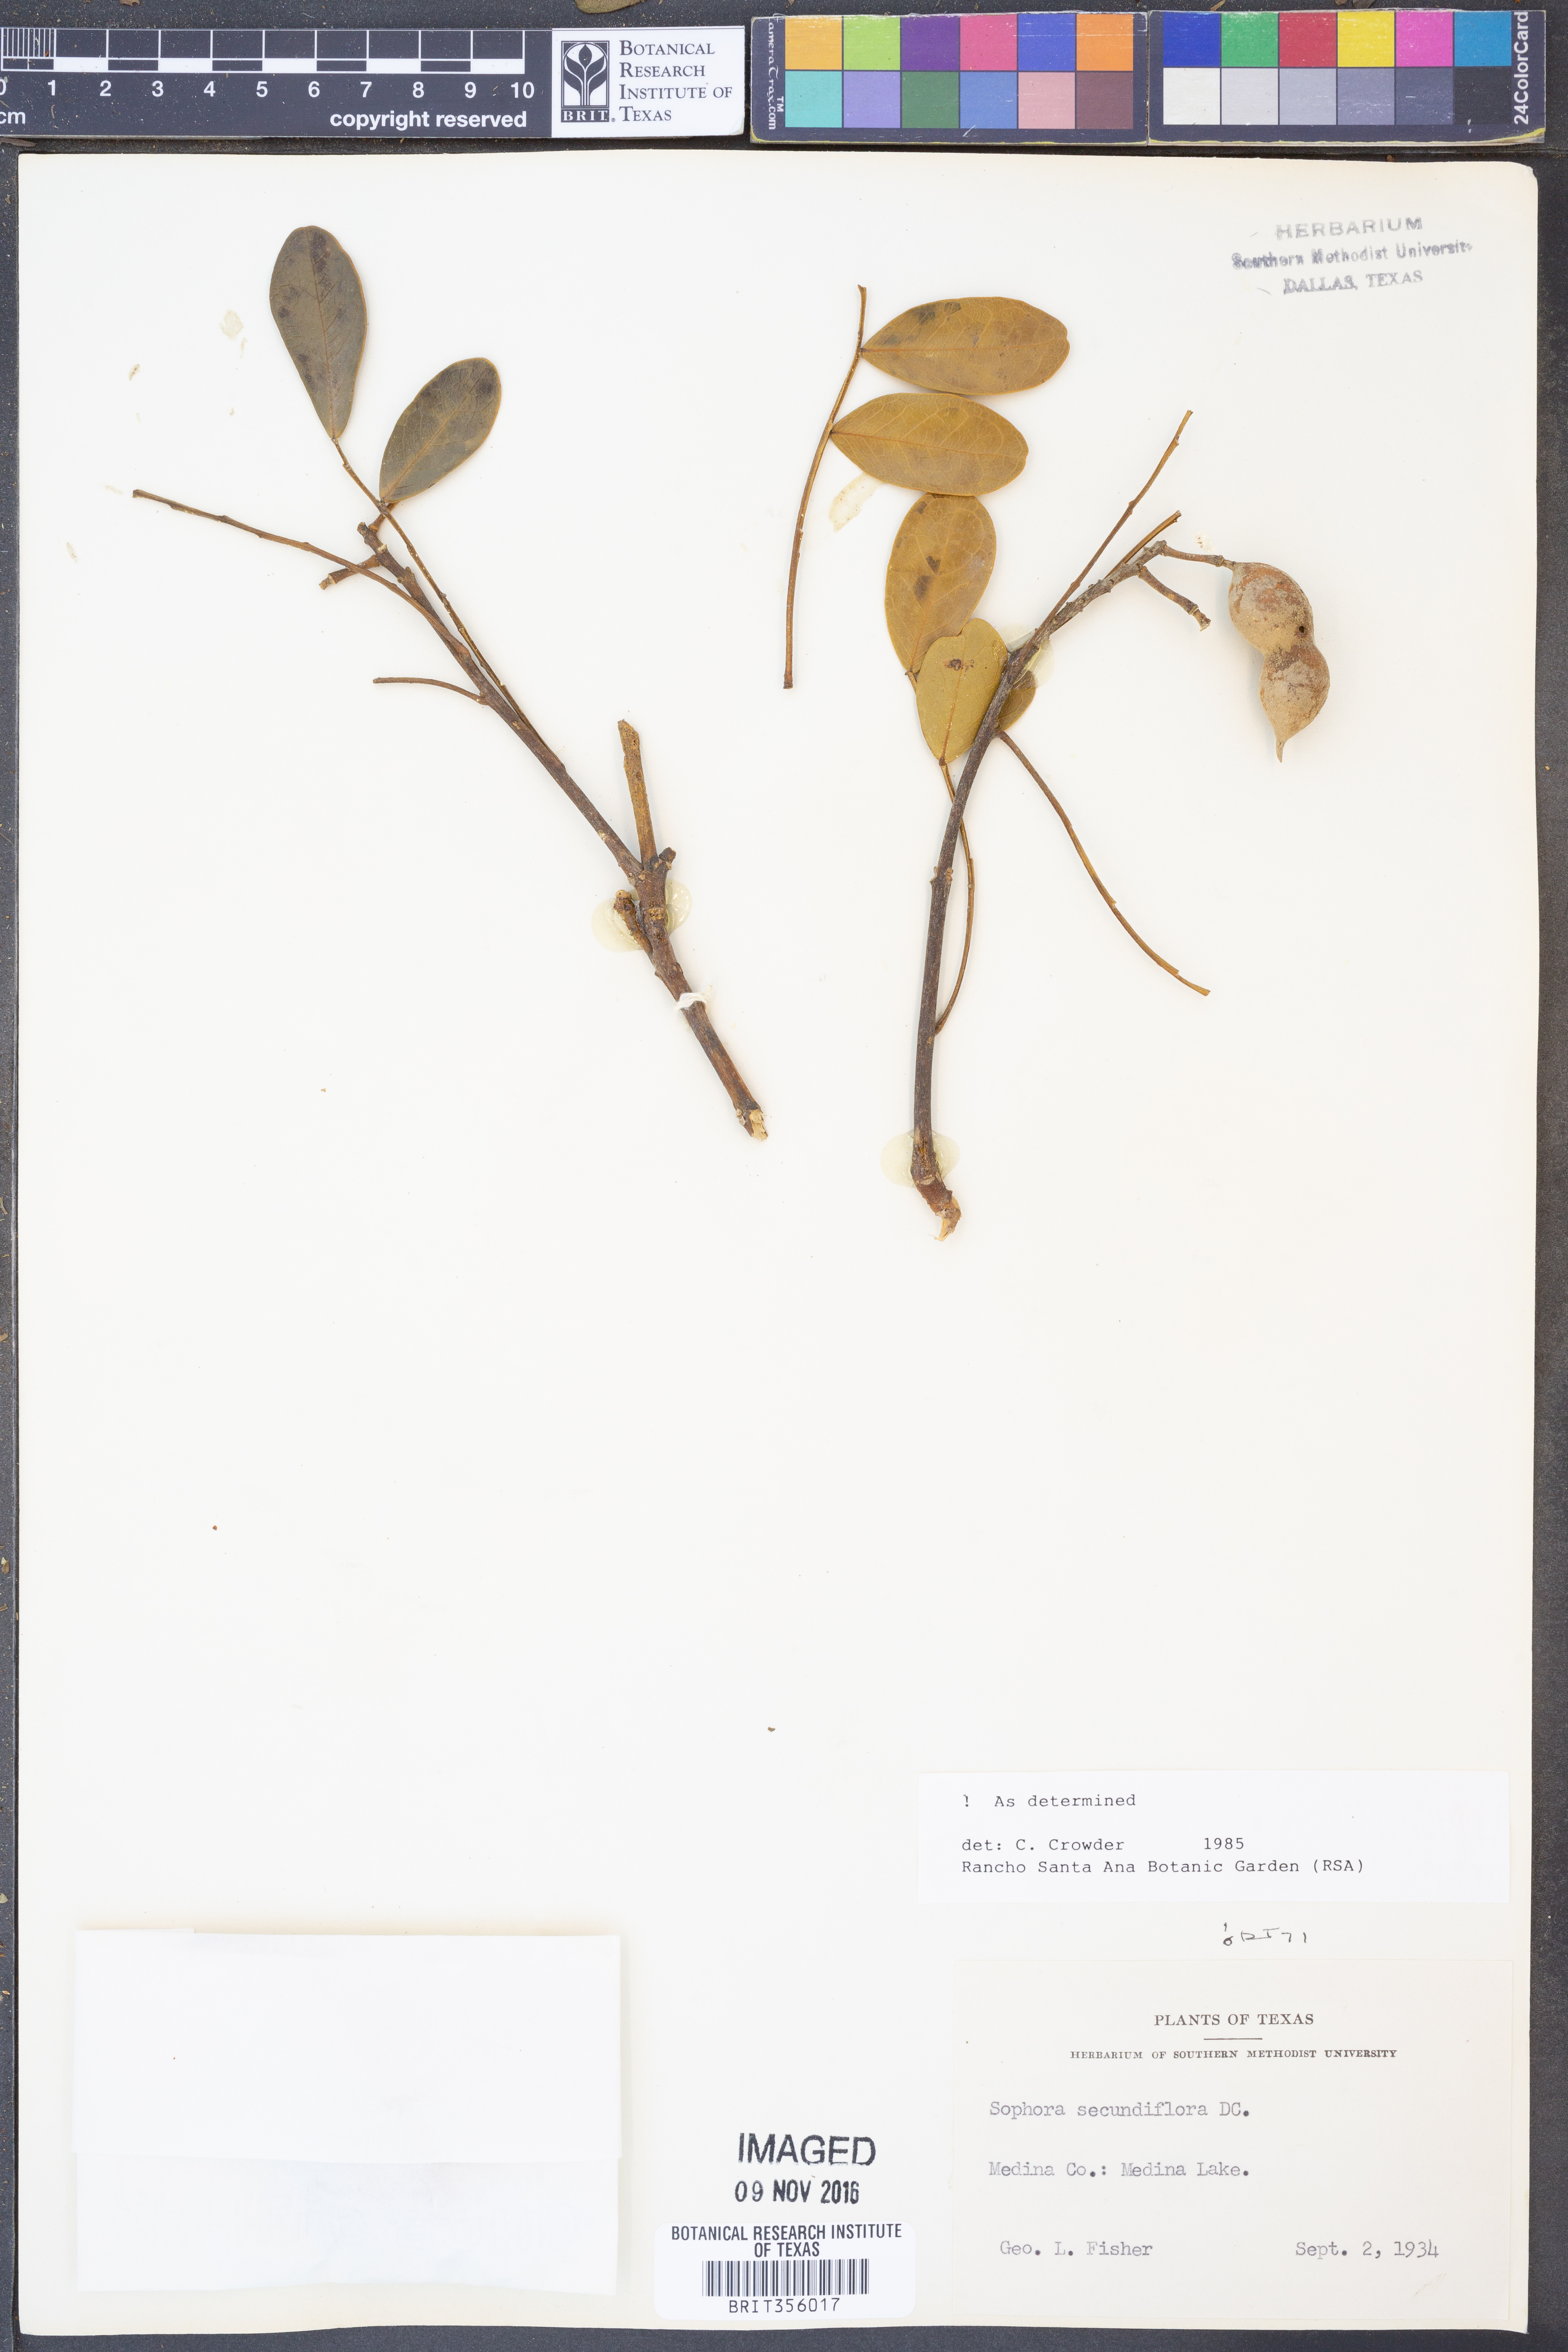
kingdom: Plantae
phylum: Tracheophyta
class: Magnoliopsida
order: Fabales
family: Fabaceae
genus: Dermatophyllum
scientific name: Dermatophyllum secundiflorum
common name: Texas-mountain-laurel
